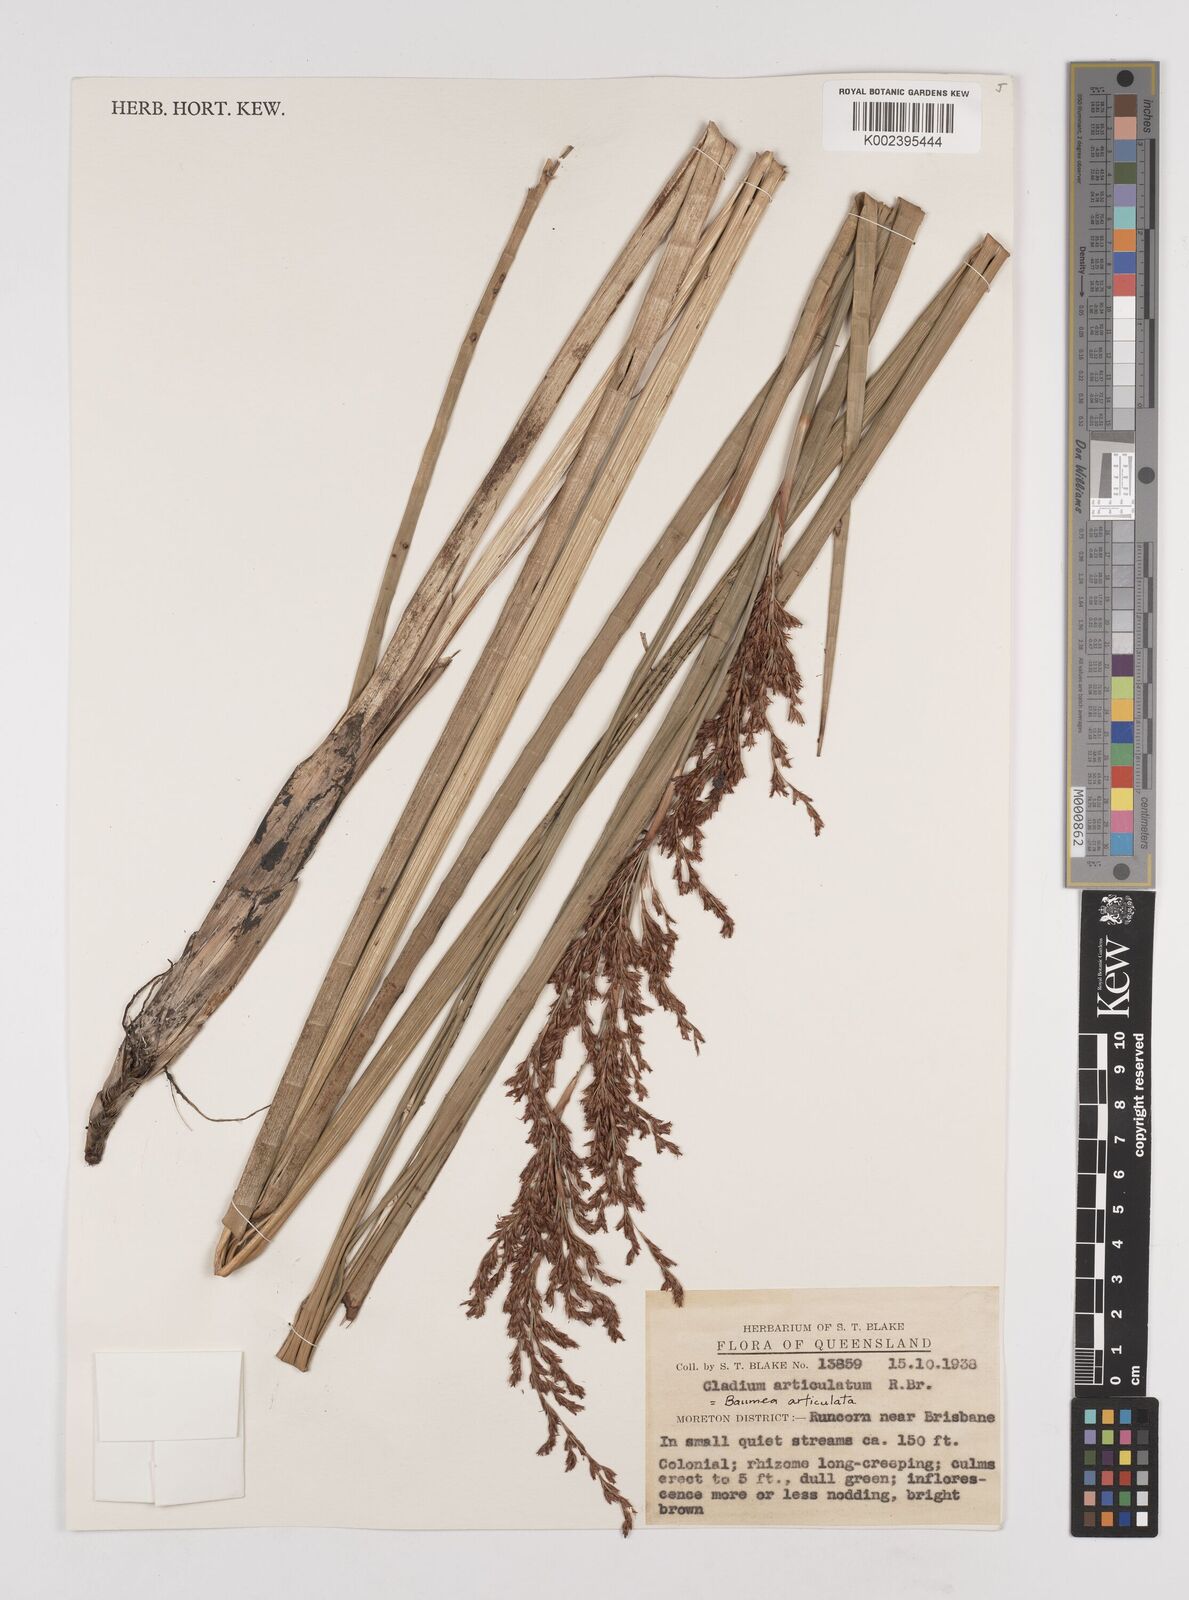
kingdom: Plantae
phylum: Tracheophyta
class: Liliopsida
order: Poales
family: Cyperaceae
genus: Machaerina
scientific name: Machaerina articulata
